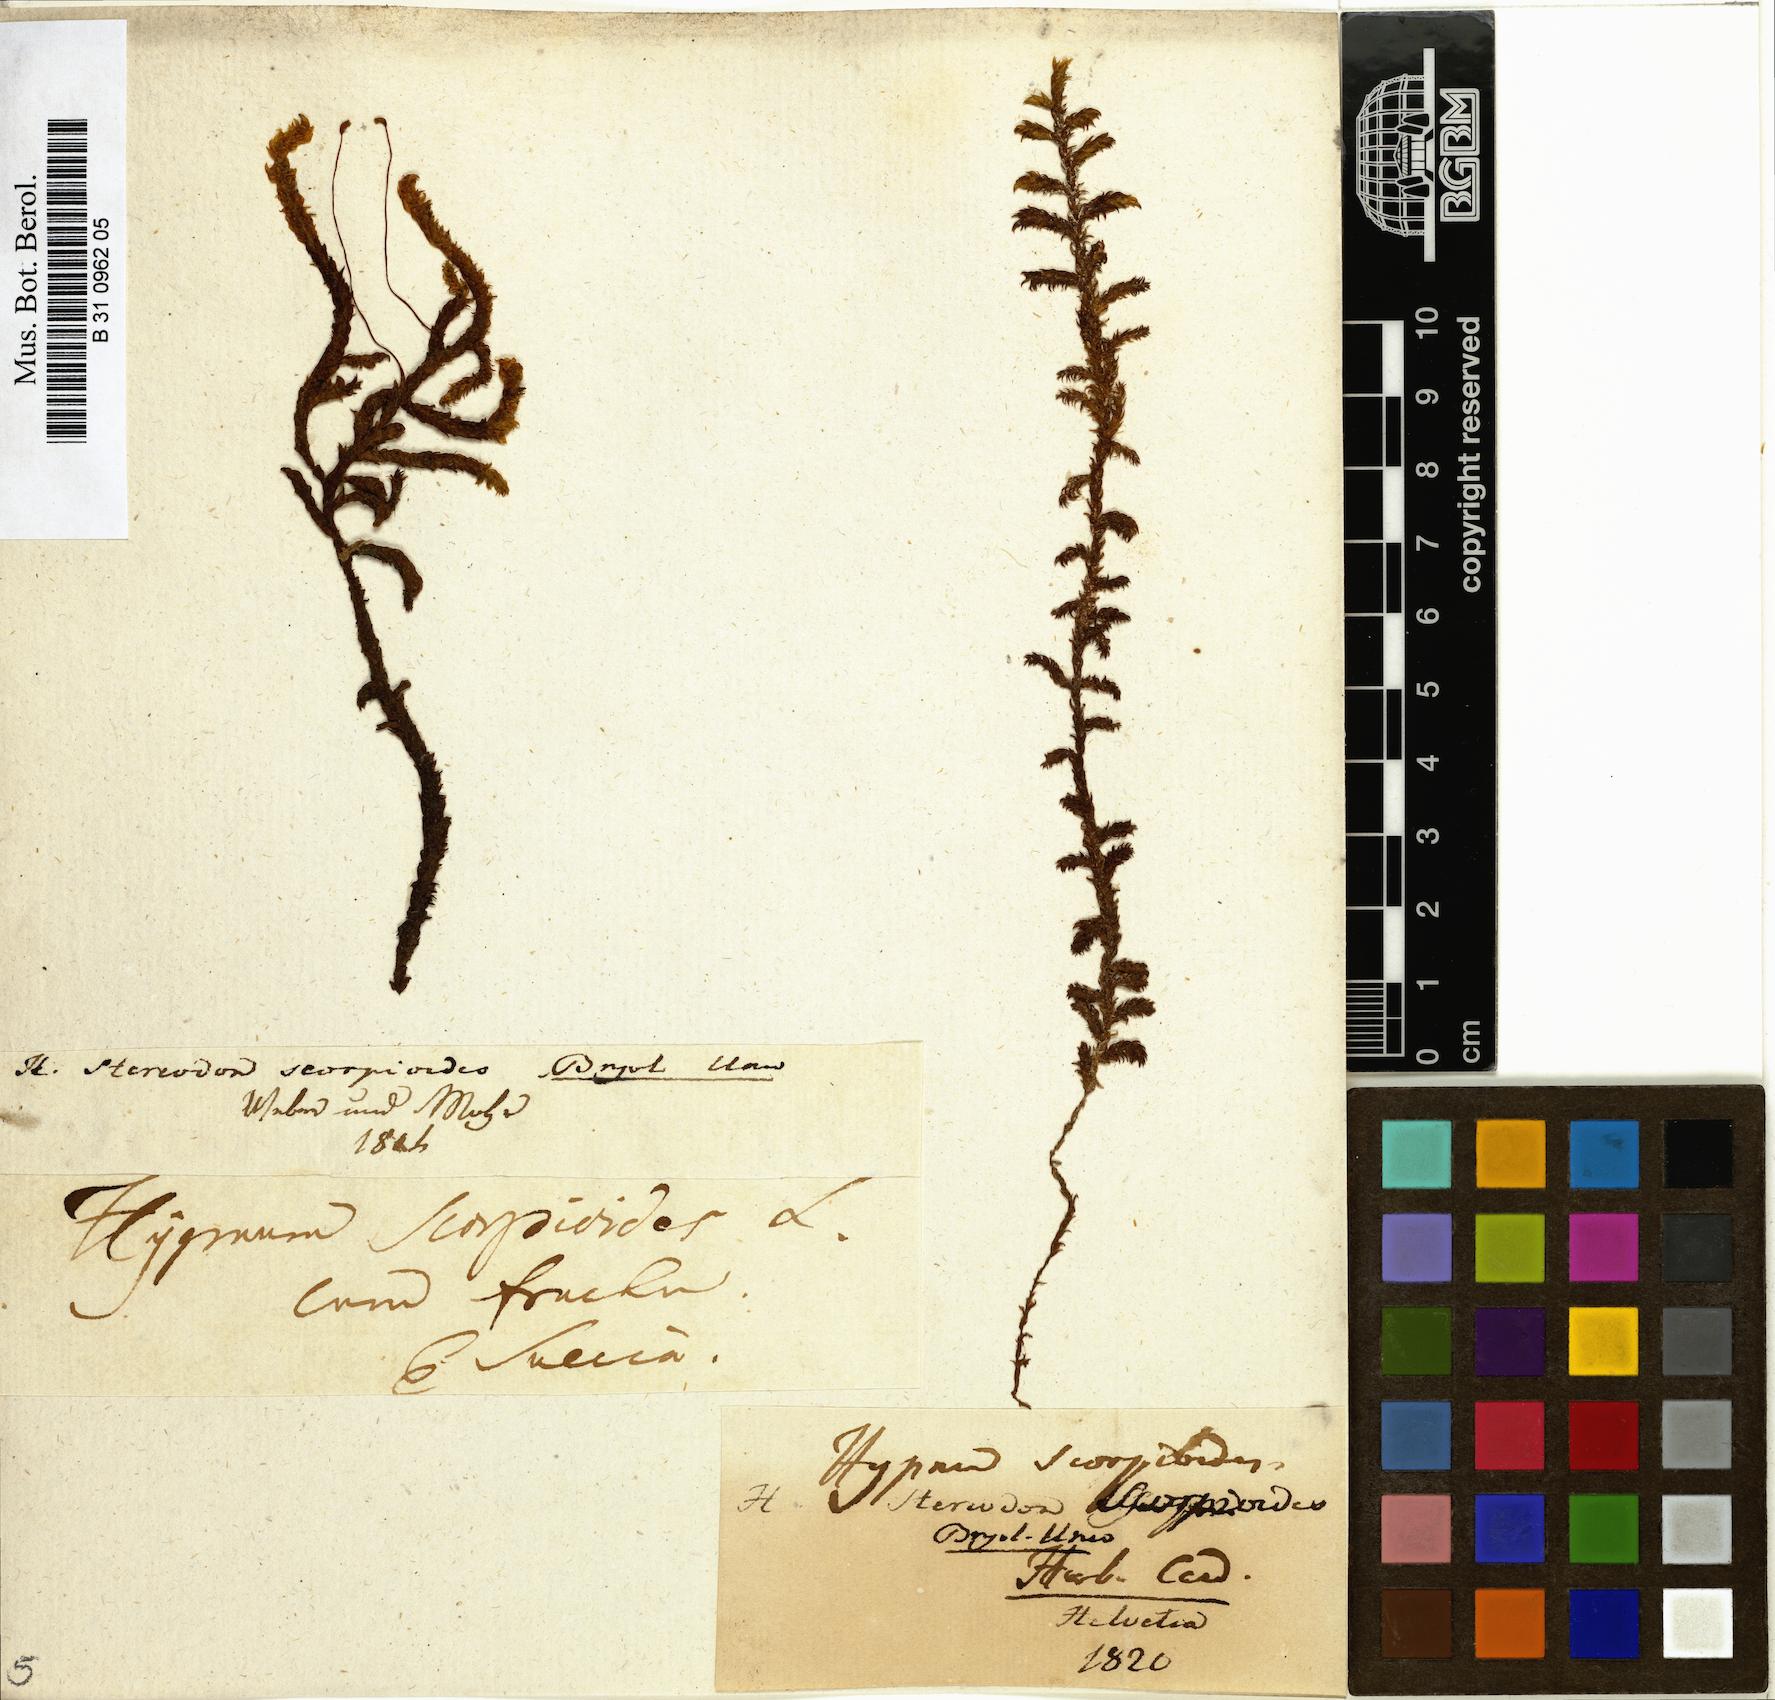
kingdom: Plantae
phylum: Bryophyta
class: Bryopsida
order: Hypnales
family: Scorpidiaceae
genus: Scorpidium
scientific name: Scorpidium scorpioides
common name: Hooked scorpion moss
